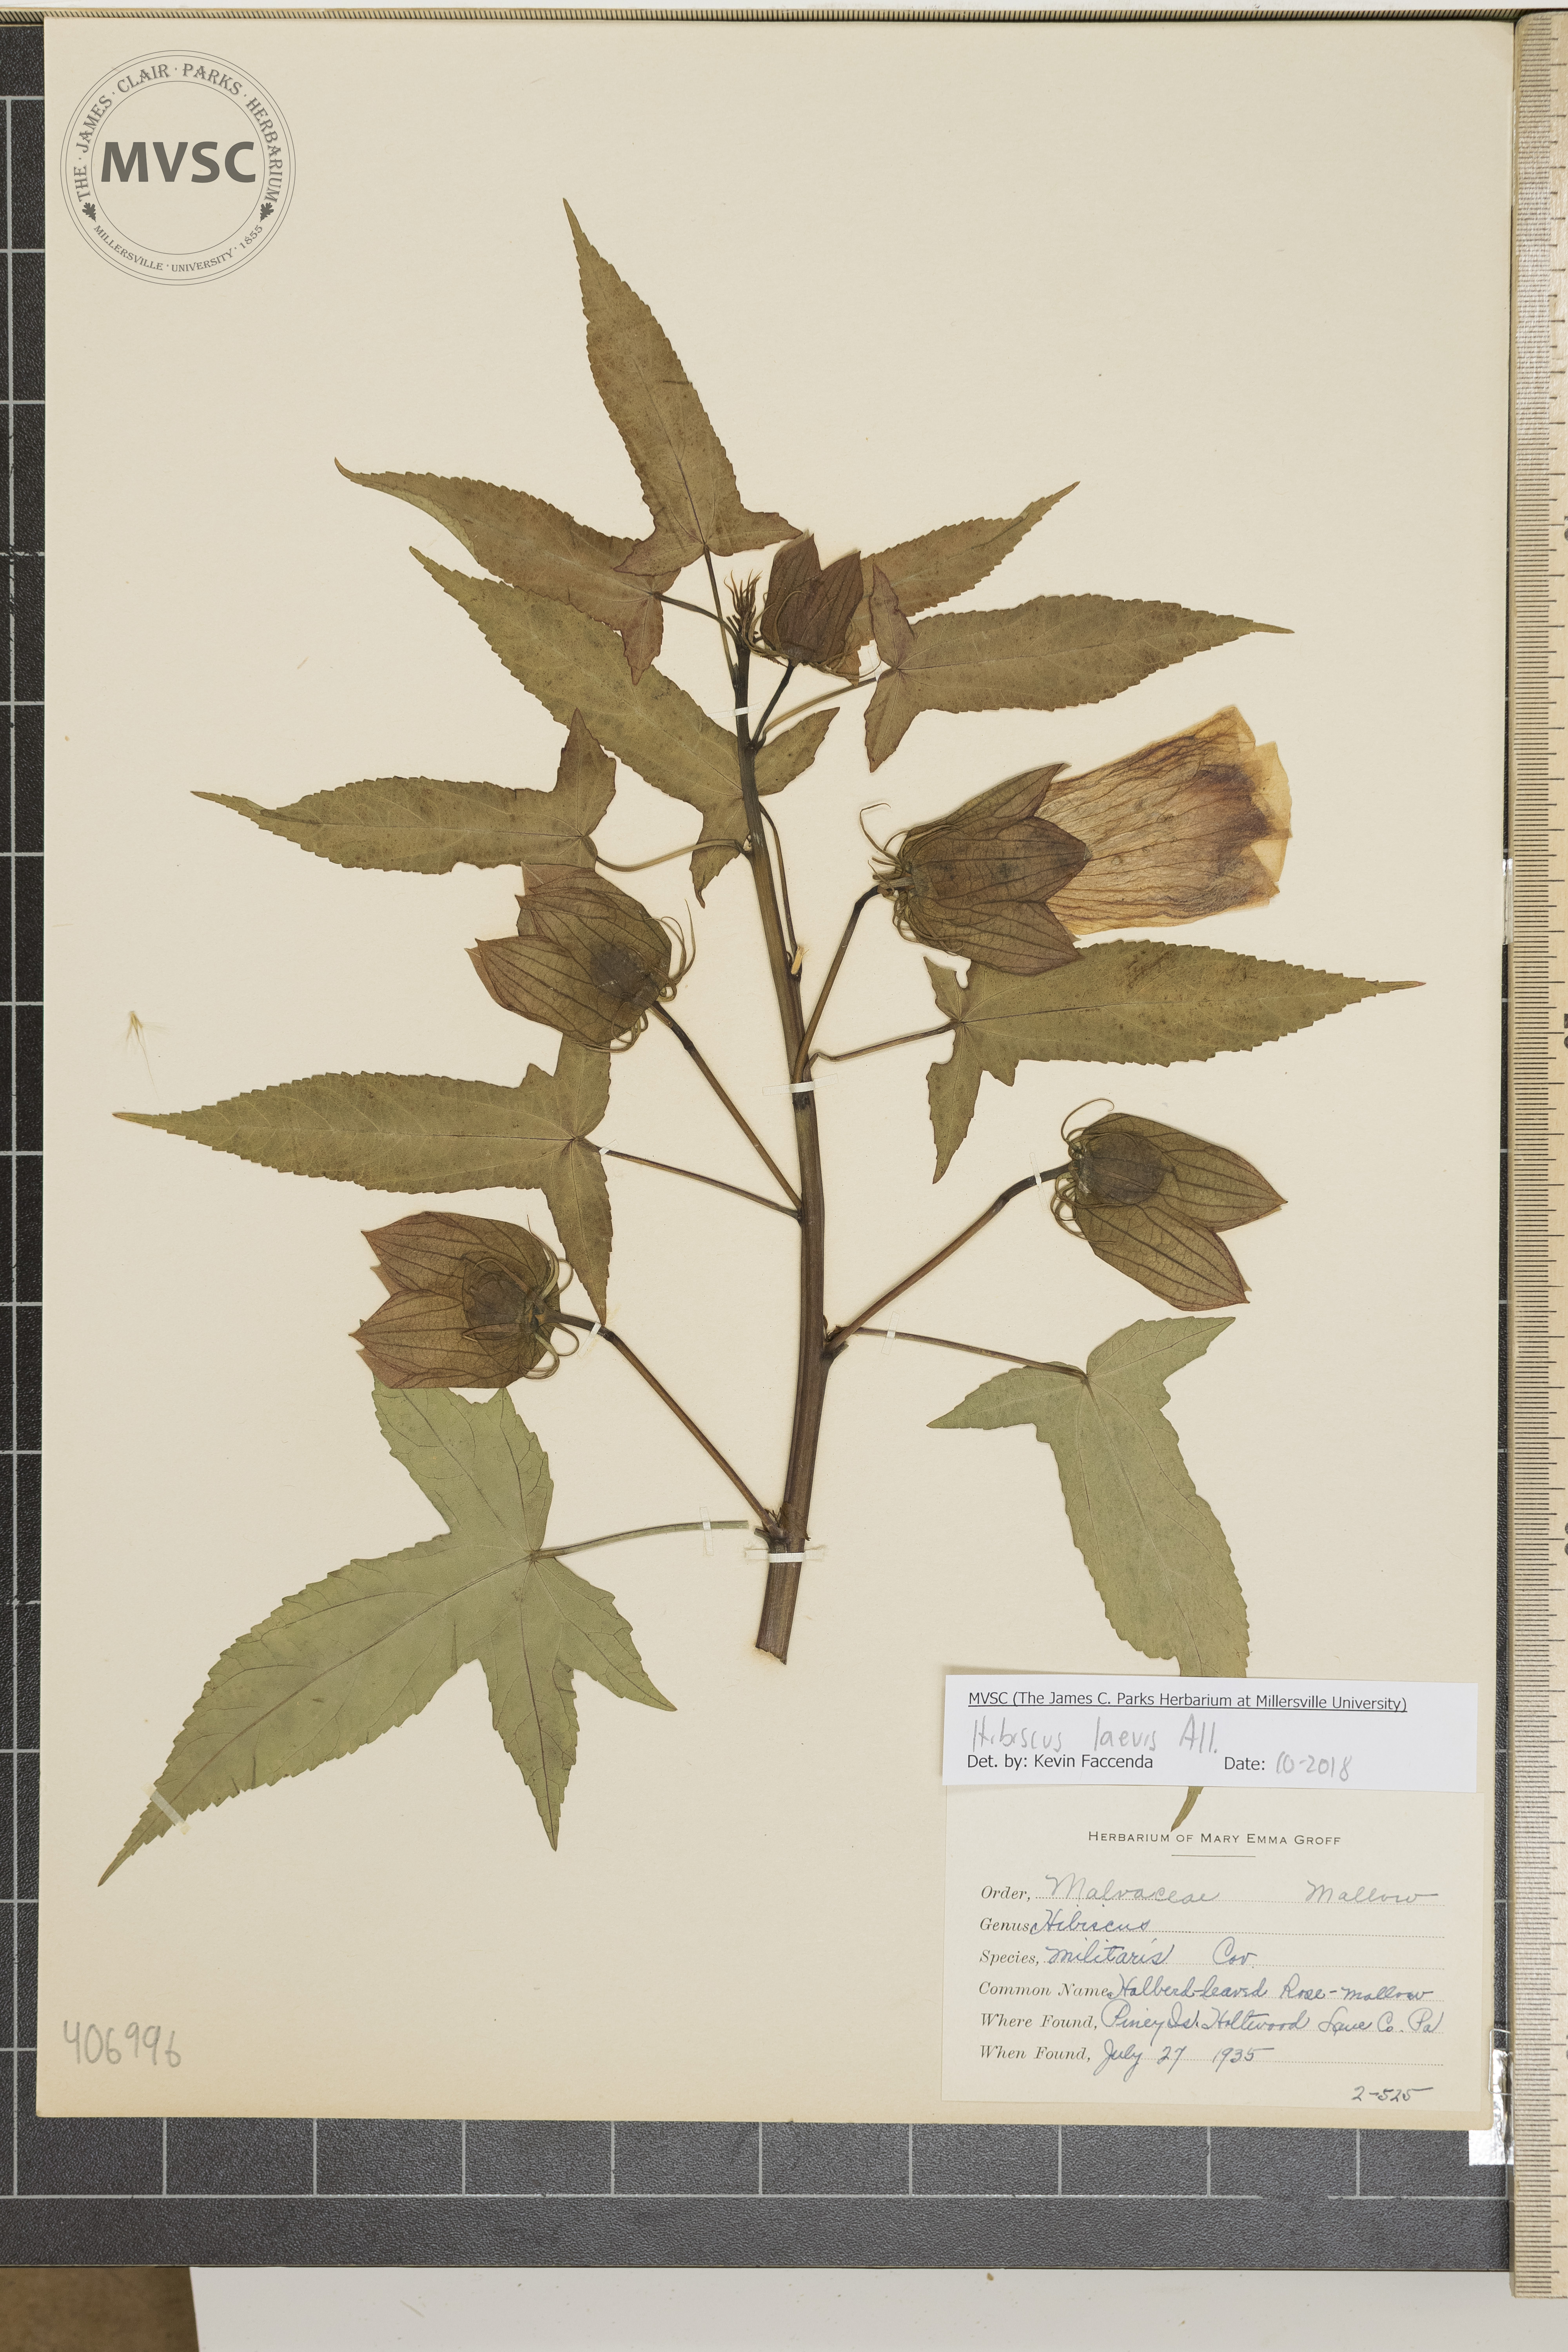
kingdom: Plantae
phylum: Tracheophyta
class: Magnoliopsida
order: Malvales
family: Malvaceae
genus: Hibiscus
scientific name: Hibiscus laevis
